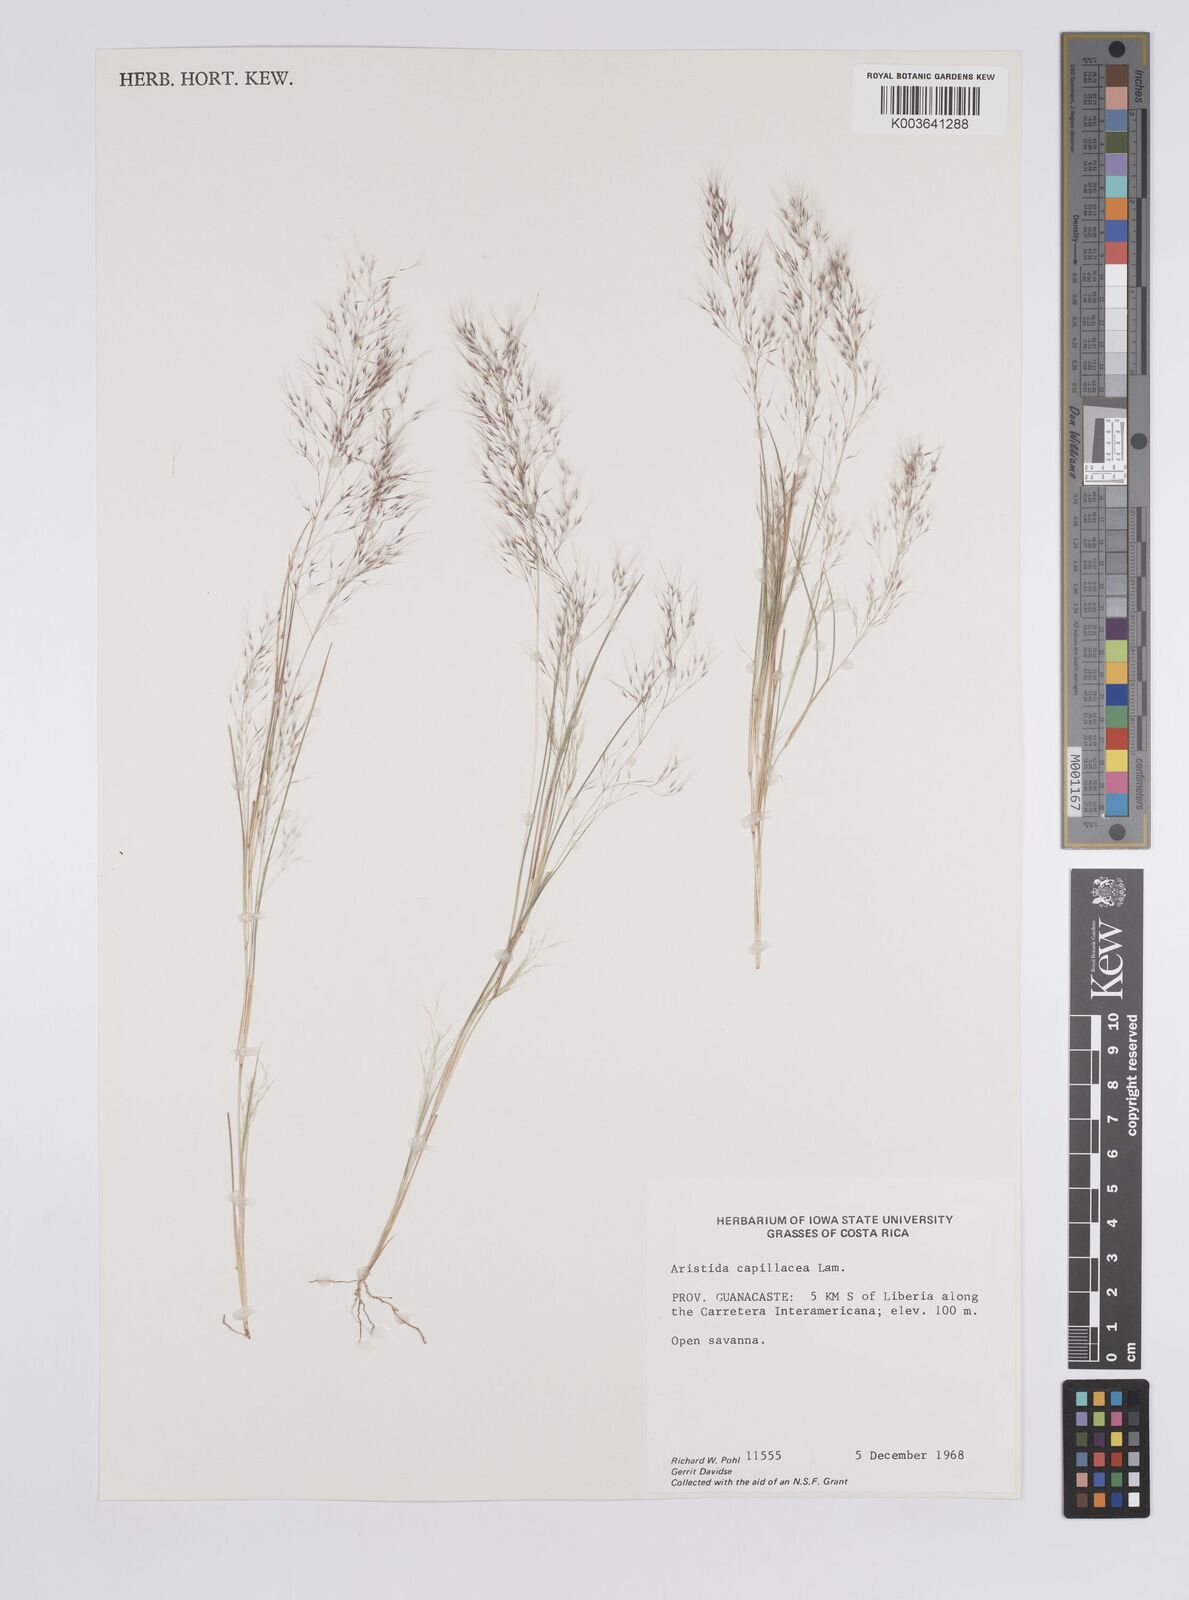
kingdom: Plantae
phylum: Tracheophyta
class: Liliopsida
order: Poales
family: Poaceae
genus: Aristida
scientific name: Aristida
